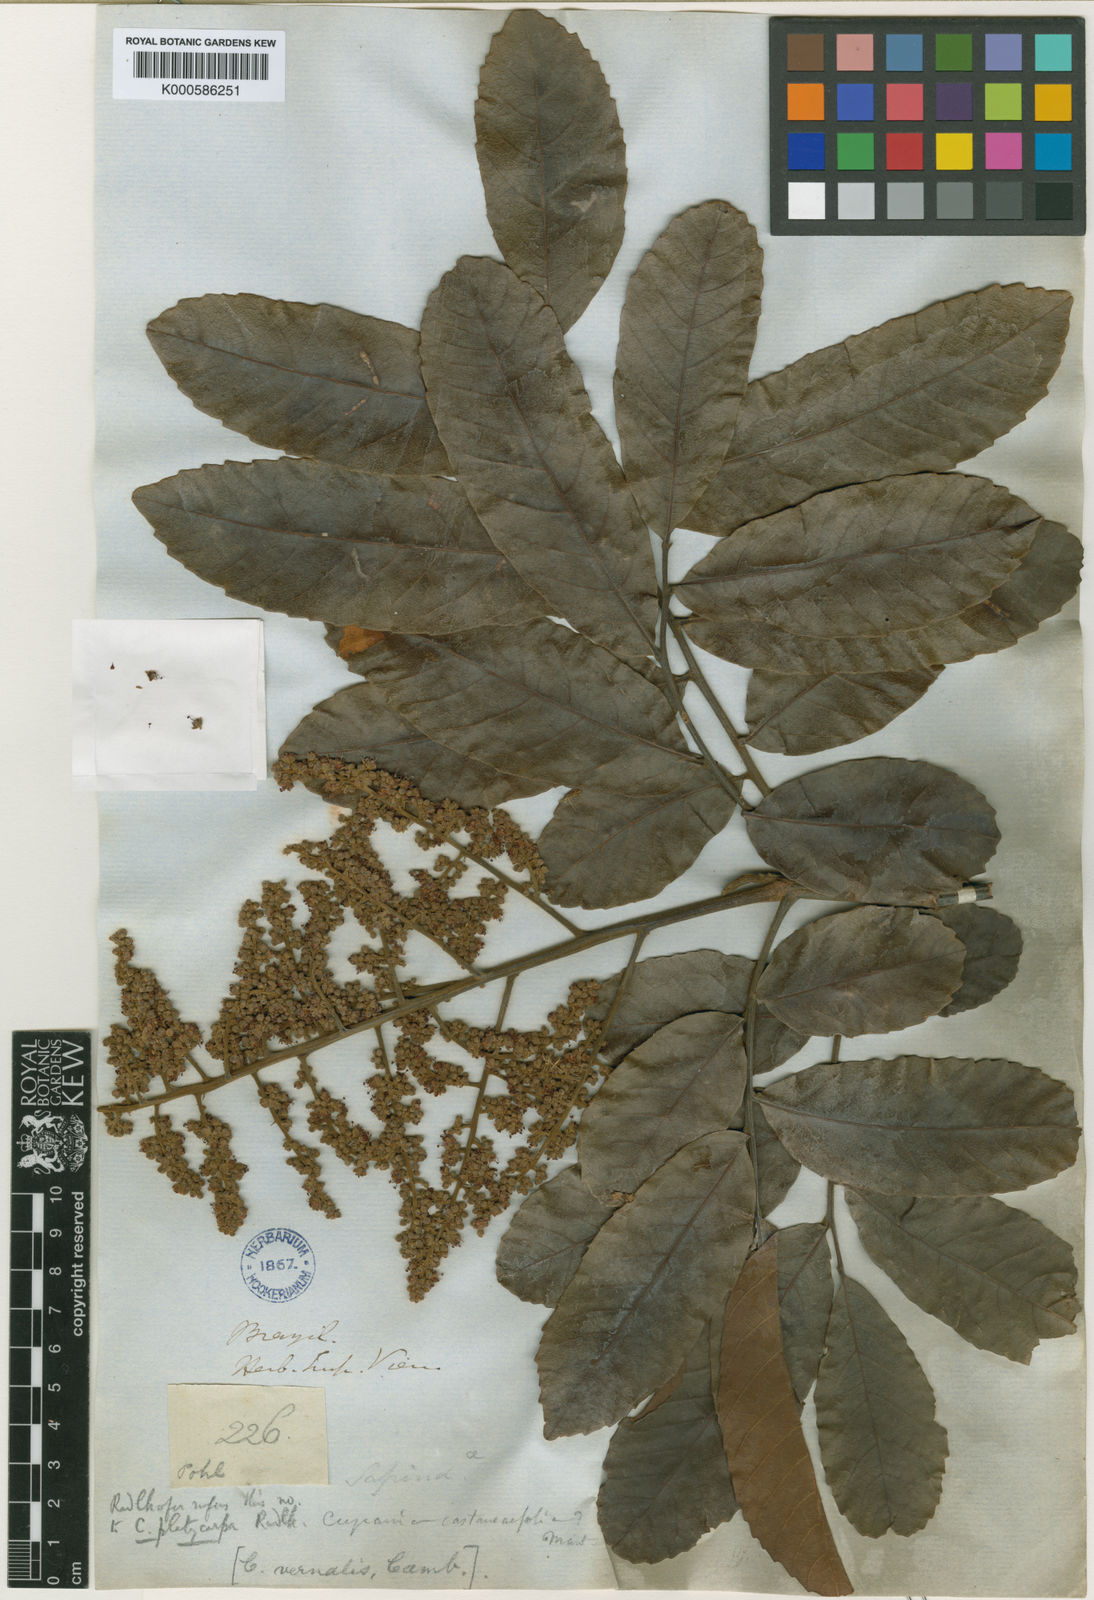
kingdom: Plantae
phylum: Tracheophyta
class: Magnoliopsida
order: Sapindales
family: Sapindaceae
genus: Cupania
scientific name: Cupania platycarpa
